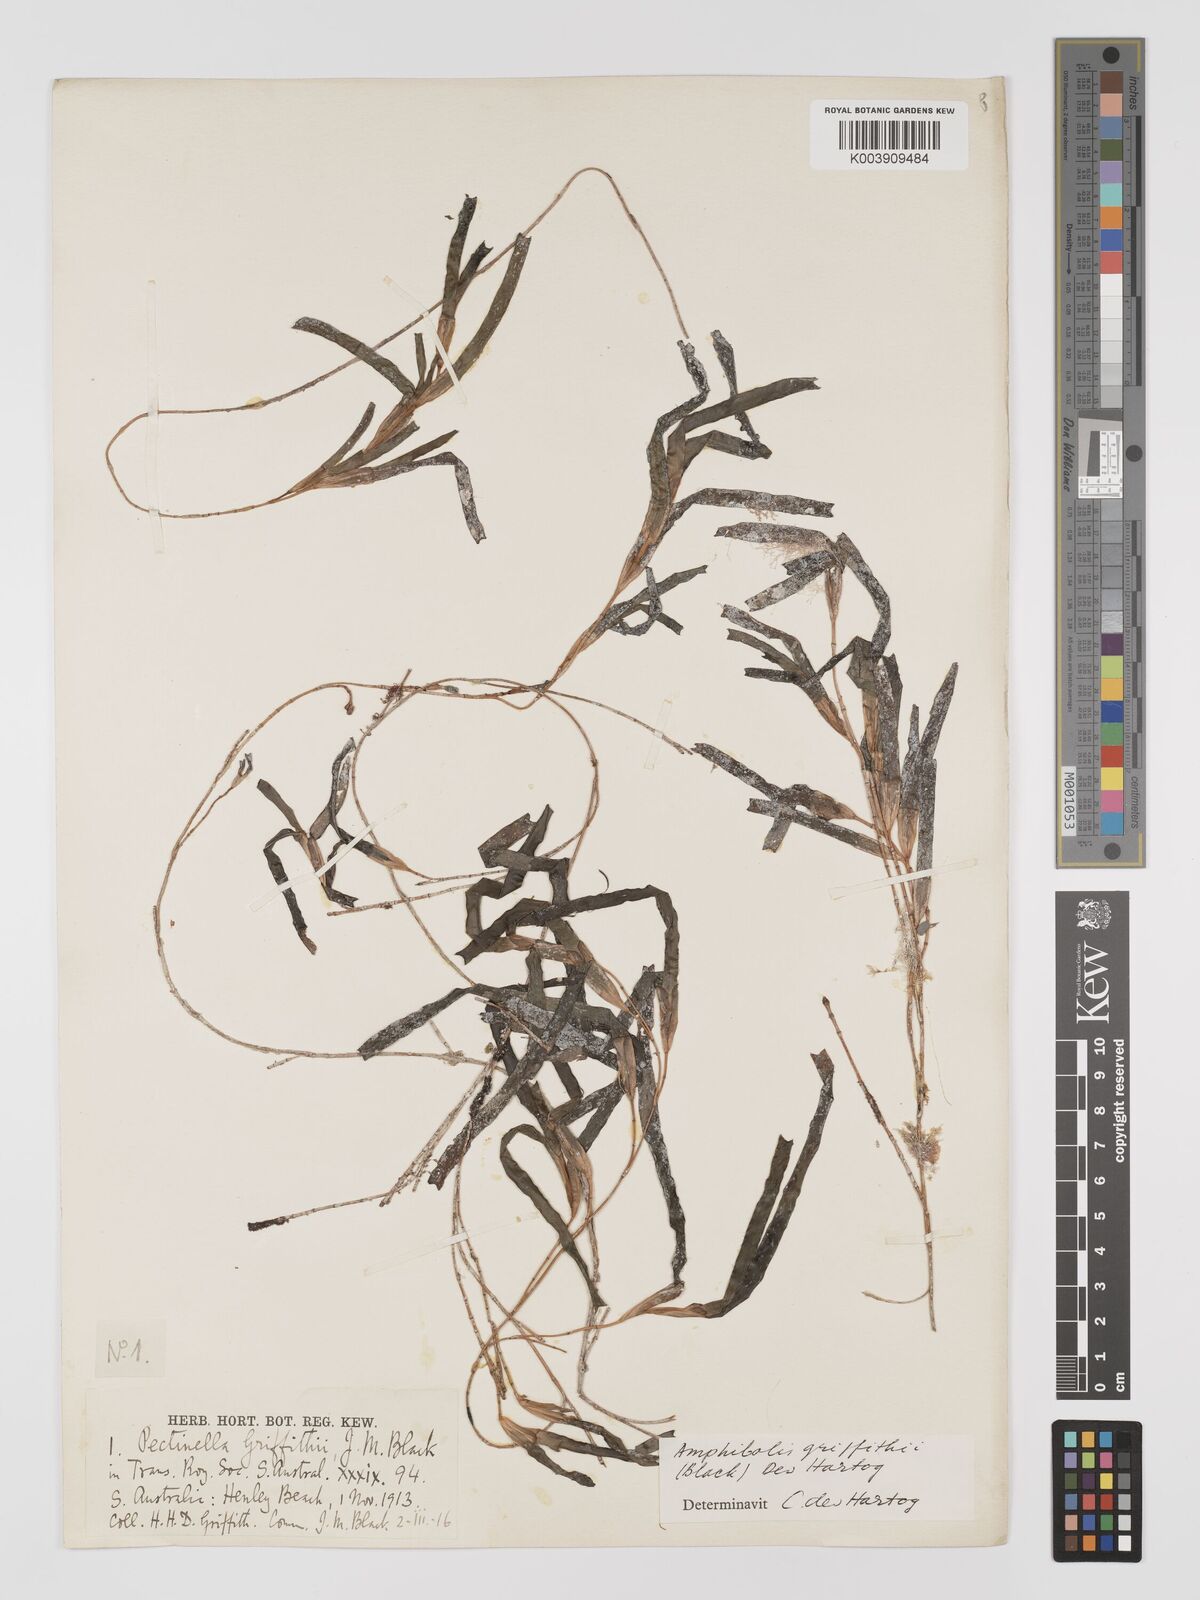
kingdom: Plantae
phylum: Tracheophyta
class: Liliopsida
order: Alismatales
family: Cymodoceaceae
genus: Amphibolis
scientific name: Amphibolis antarctica
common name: Species code: aa
